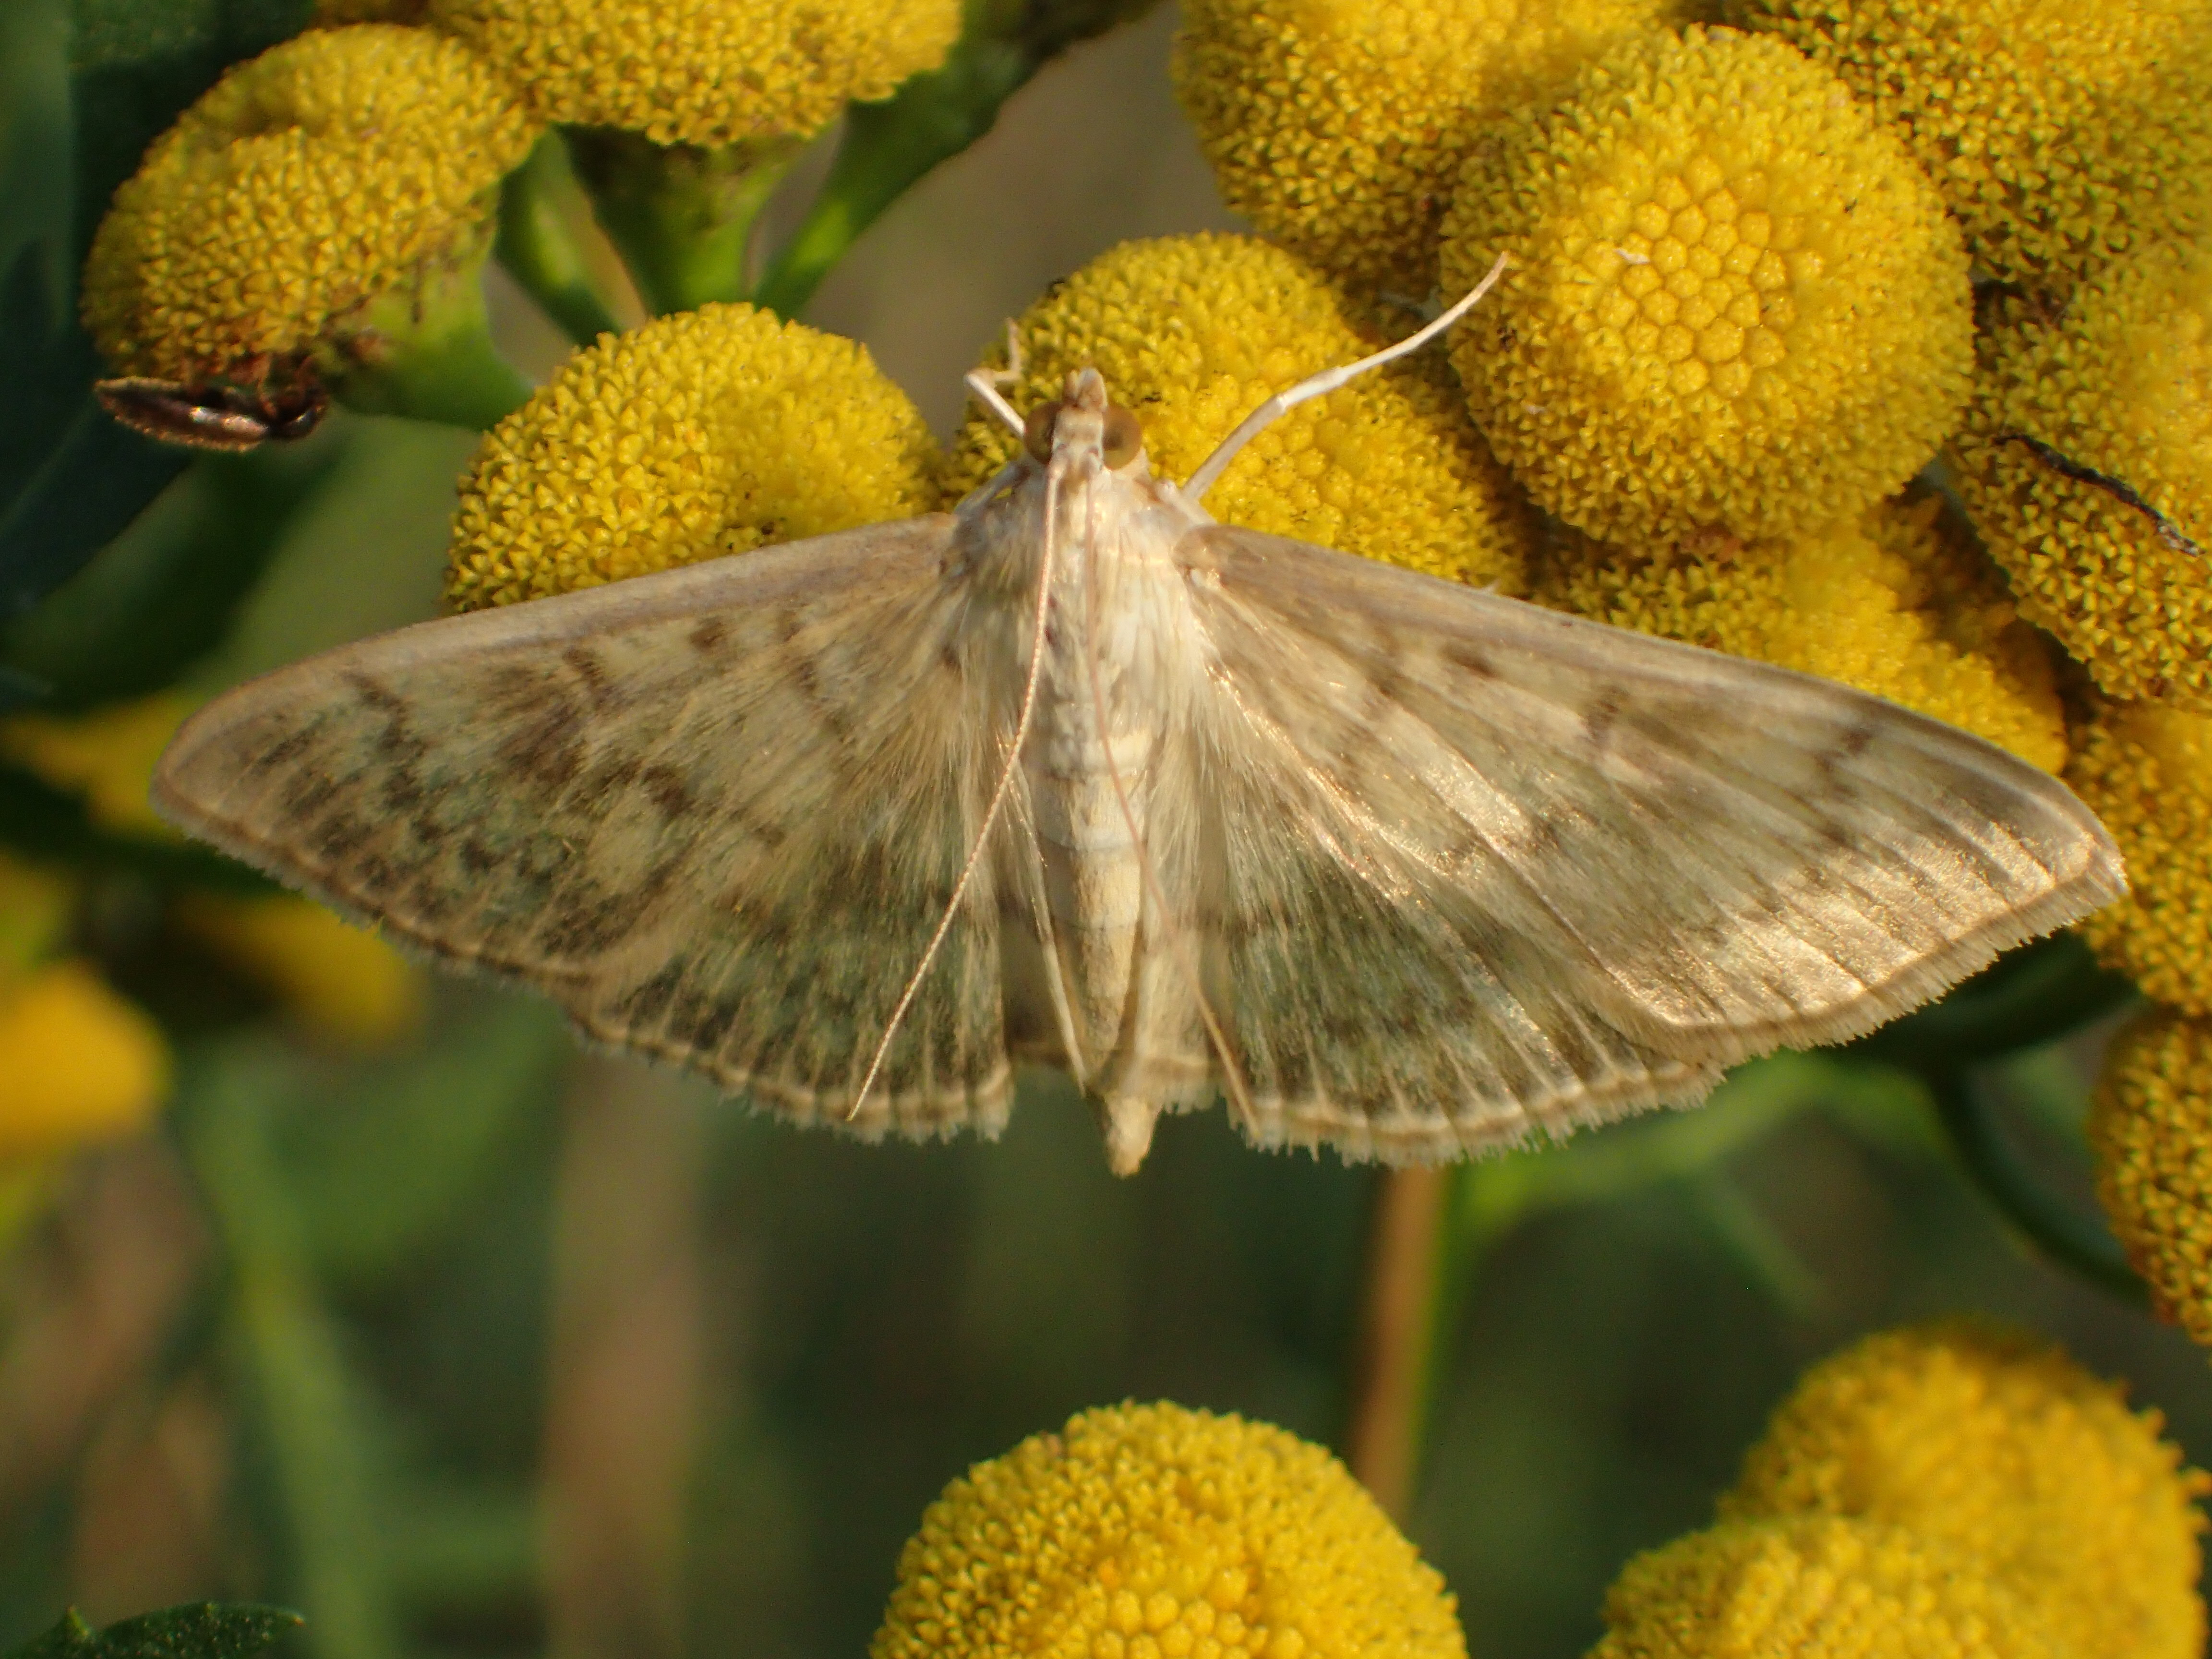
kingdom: Animalia
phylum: Arthropoda
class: Insecta
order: Lepidoptera
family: Crambidae
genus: Patania
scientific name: Patania ruralis
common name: Mother of pearl
